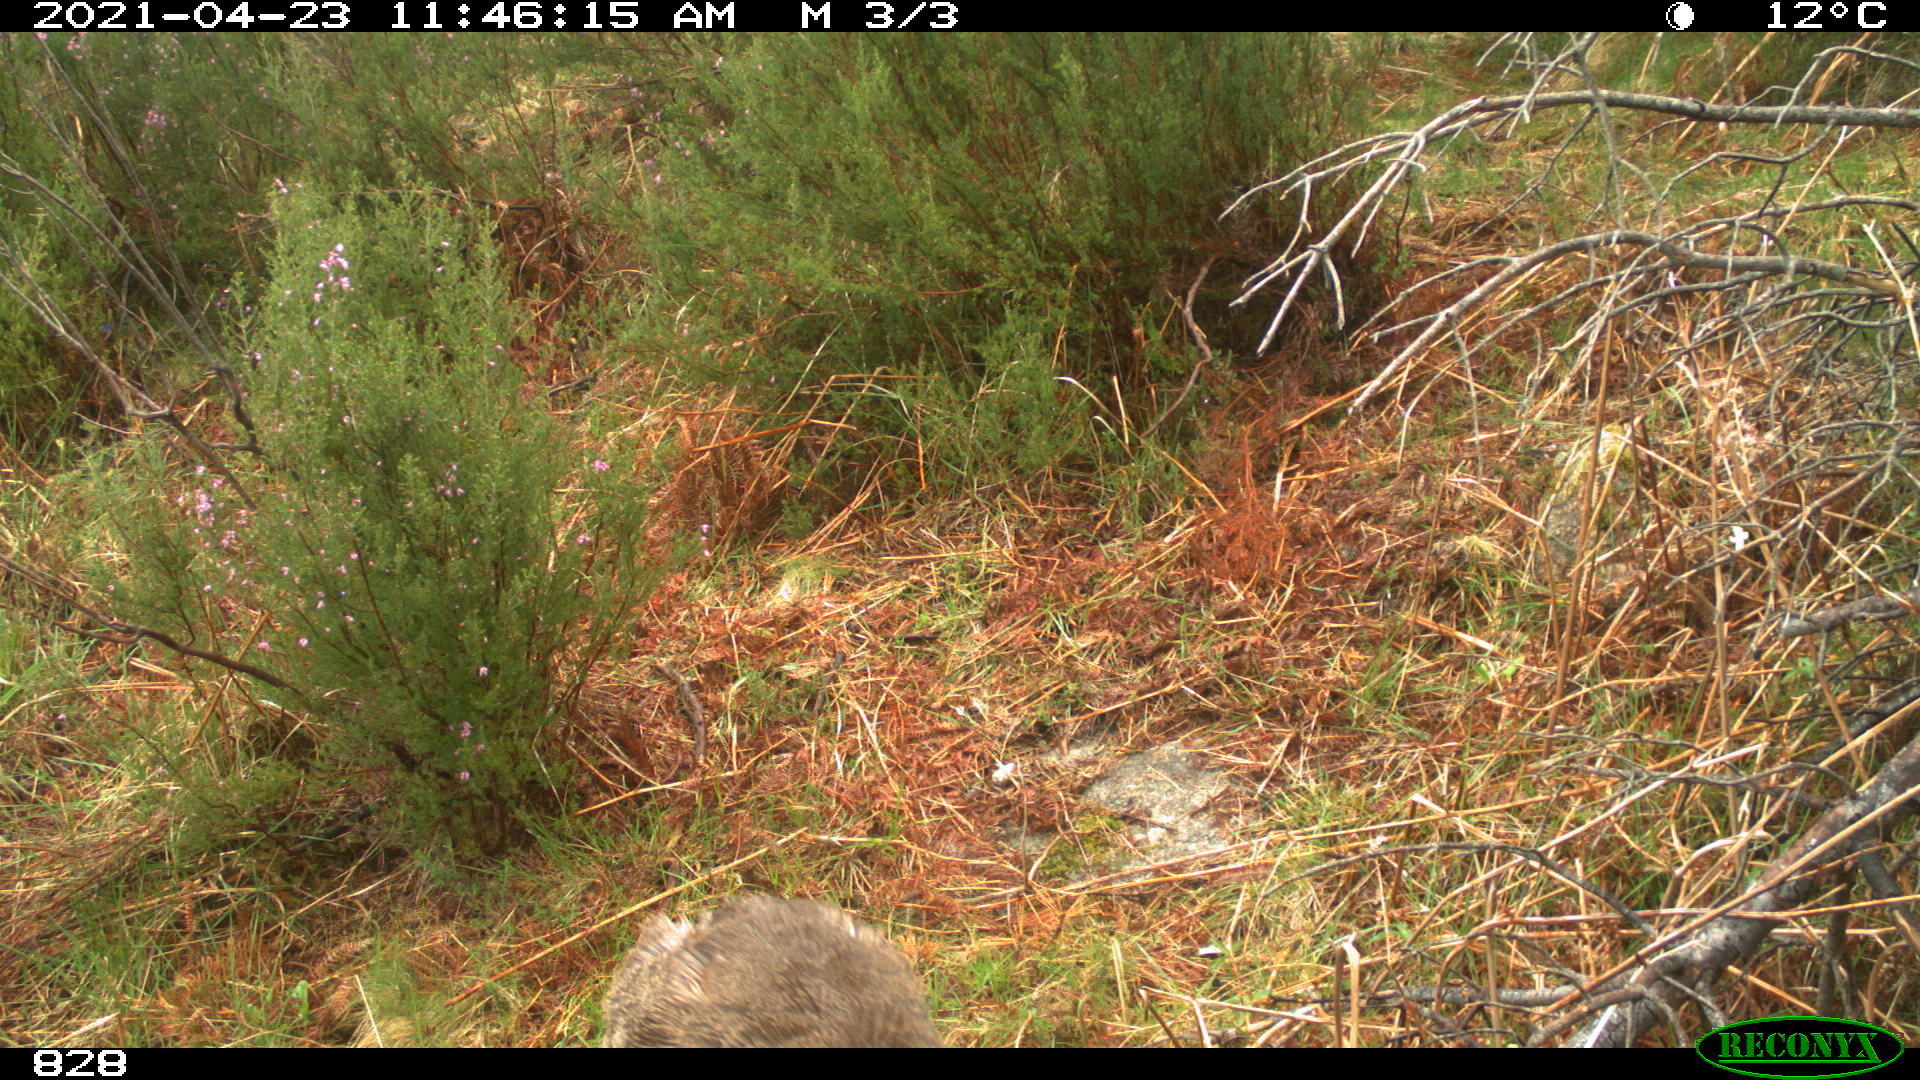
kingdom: Animalia
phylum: Chordata
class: Mammalia
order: Artiodactyla
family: Cervidae
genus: Capreolus
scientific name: Capreolus capreolus
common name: Western roe deer
